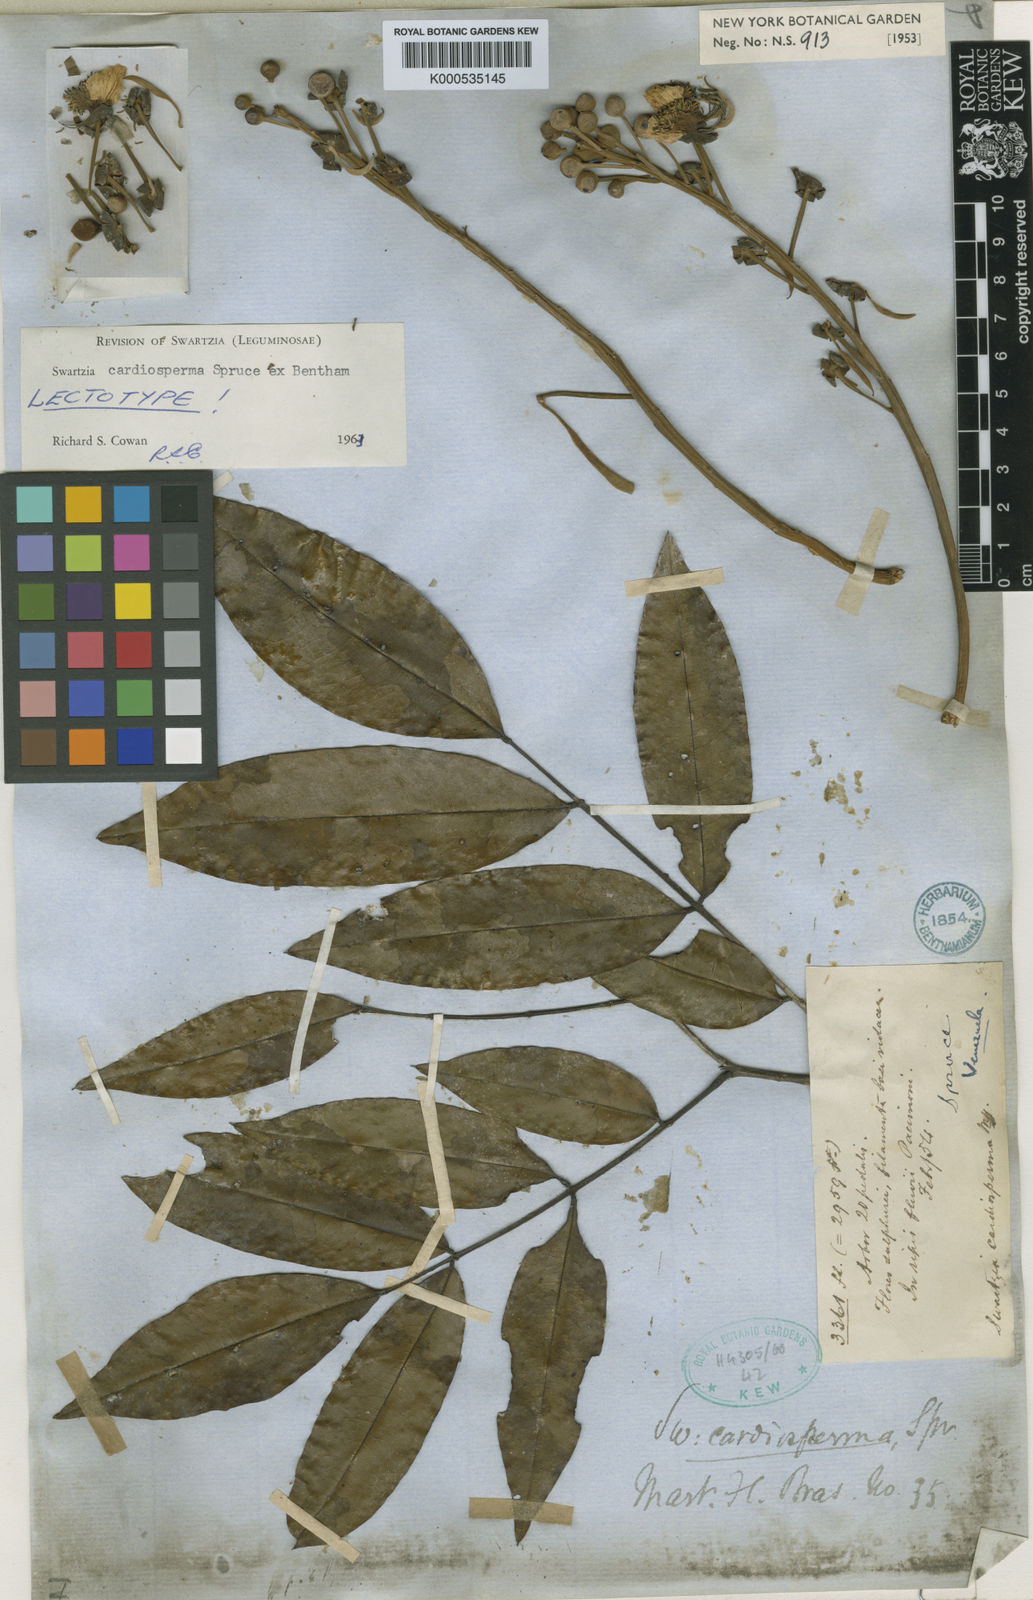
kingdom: Plantae
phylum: Tracheophyta
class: Magnoliopsida
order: Fabales
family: Fabaceae
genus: Swartzia
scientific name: Swartzia cardiosperma
